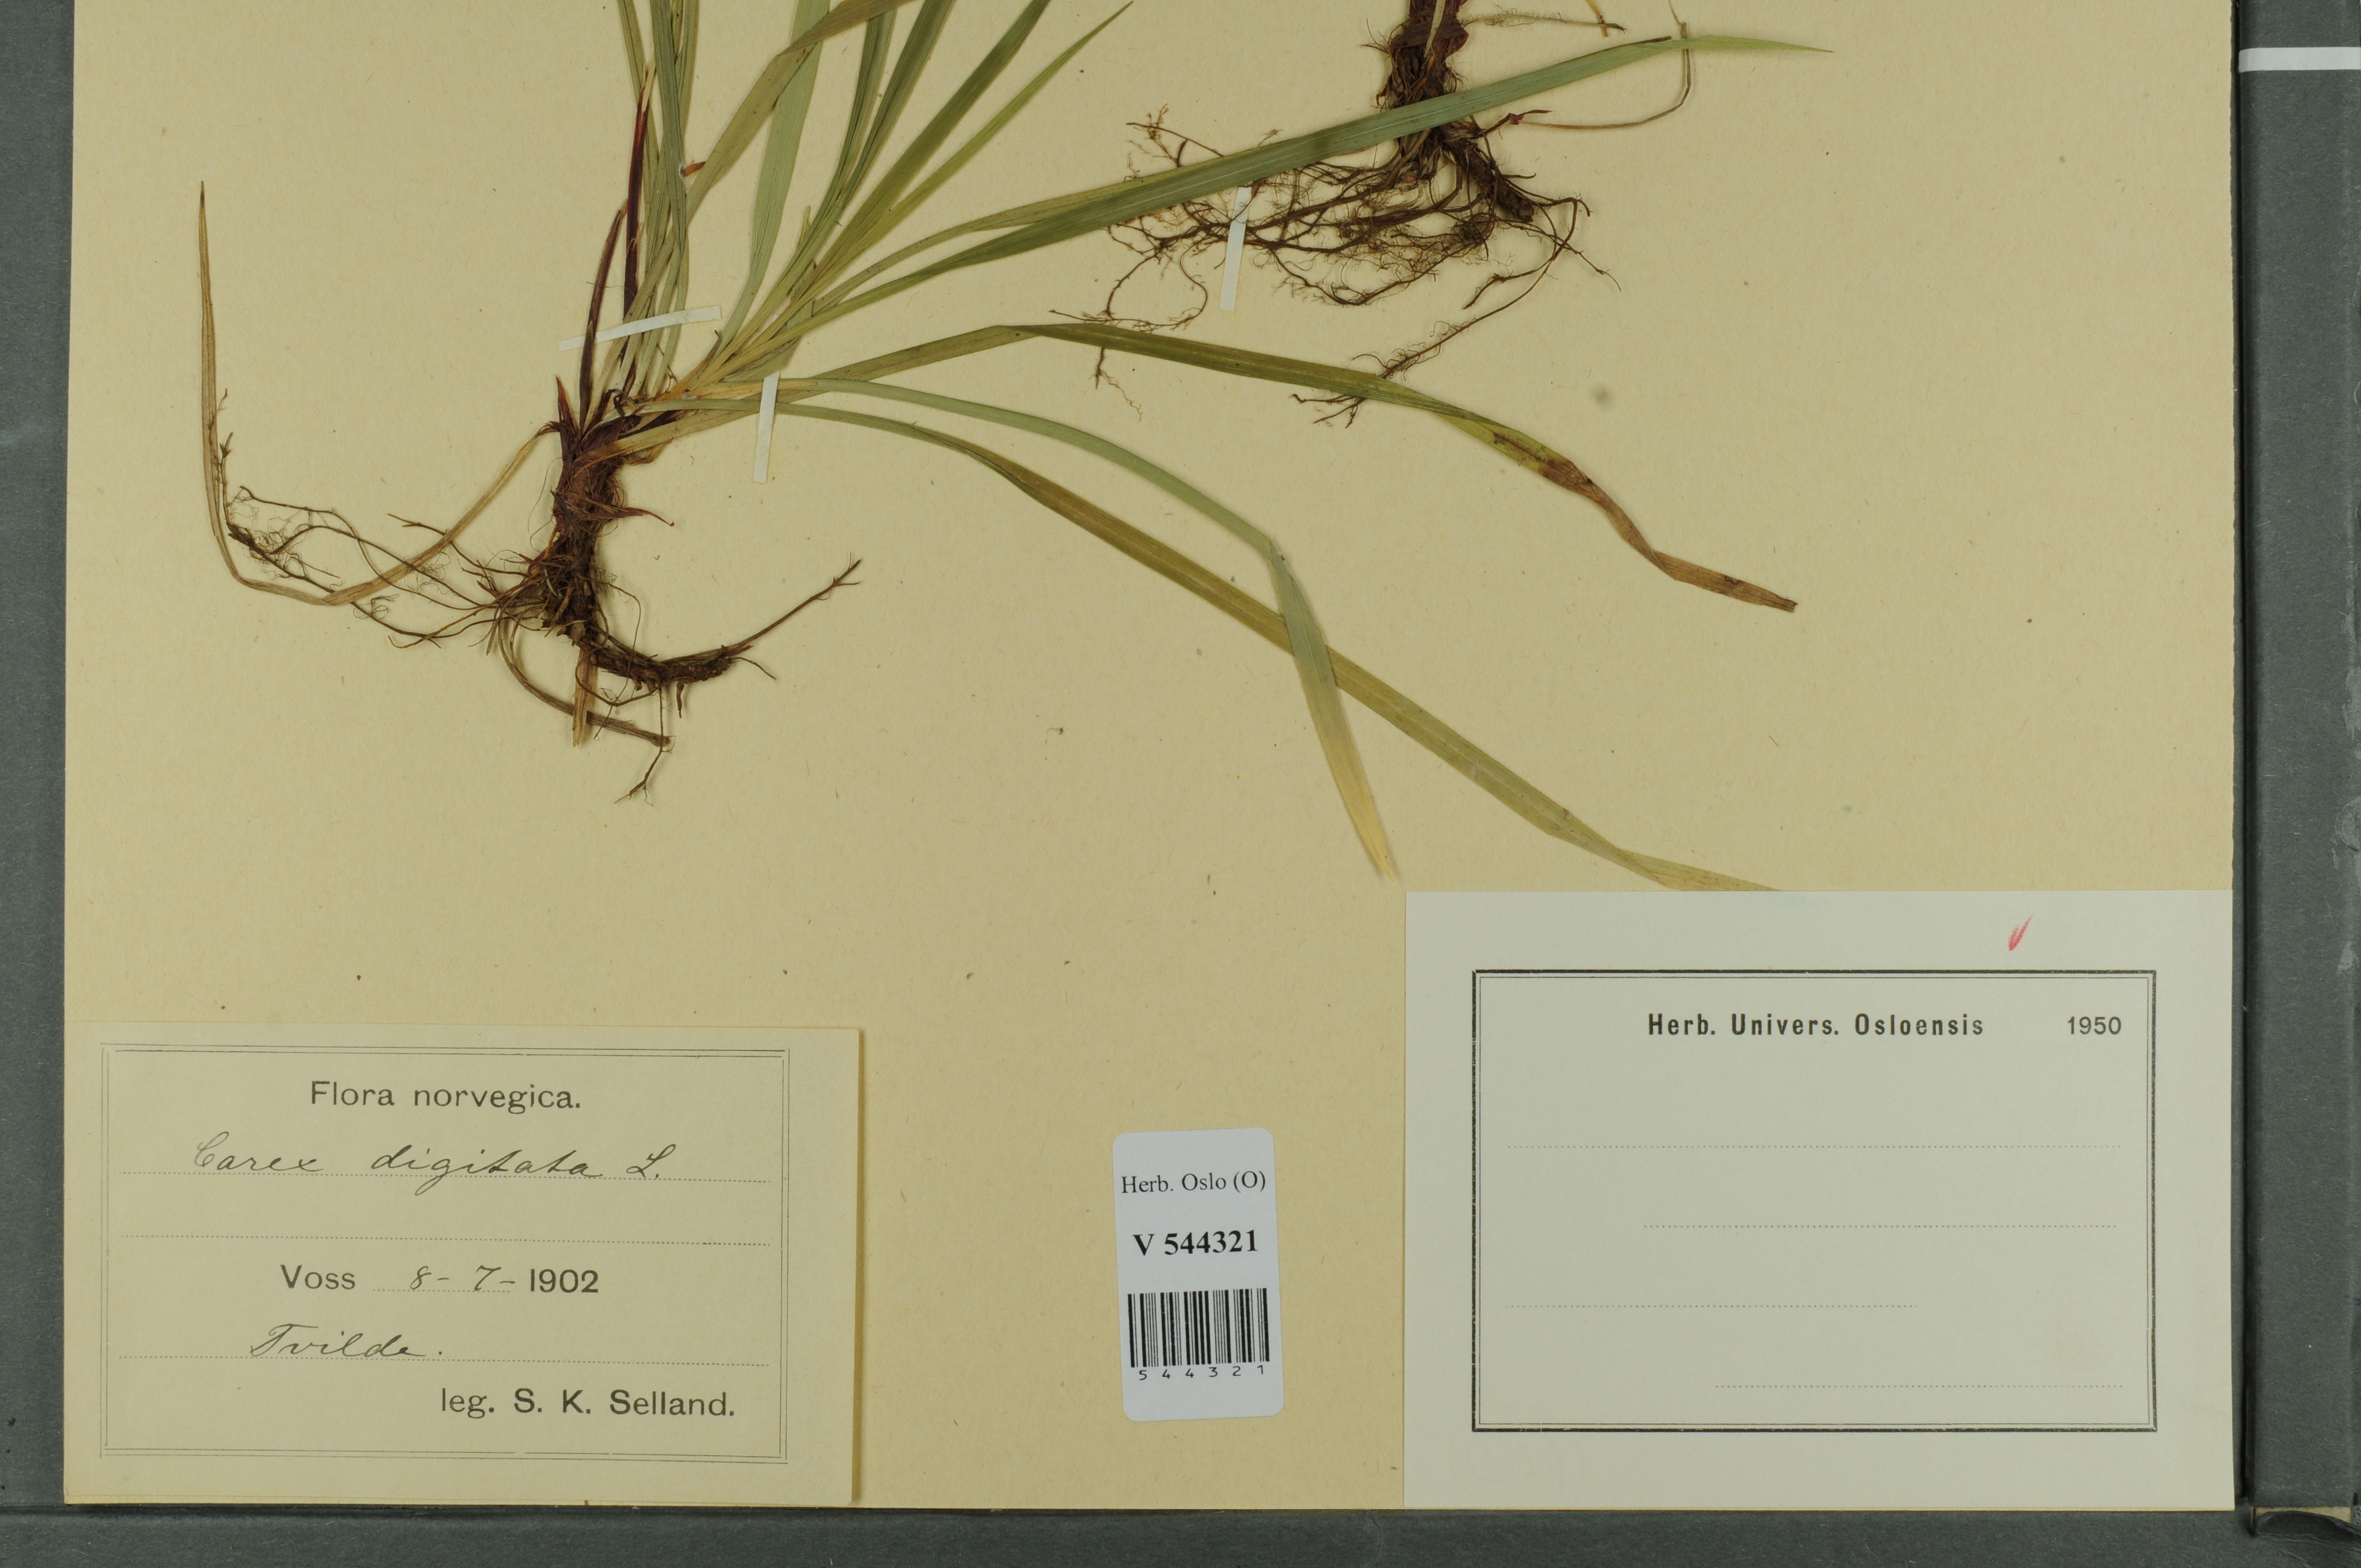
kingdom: Plantae
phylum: Tracheophyta
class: Liliopsida
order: Poales
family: Cyperaceae
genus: Carex
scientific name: Carex digitata
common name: Fingered sedge
